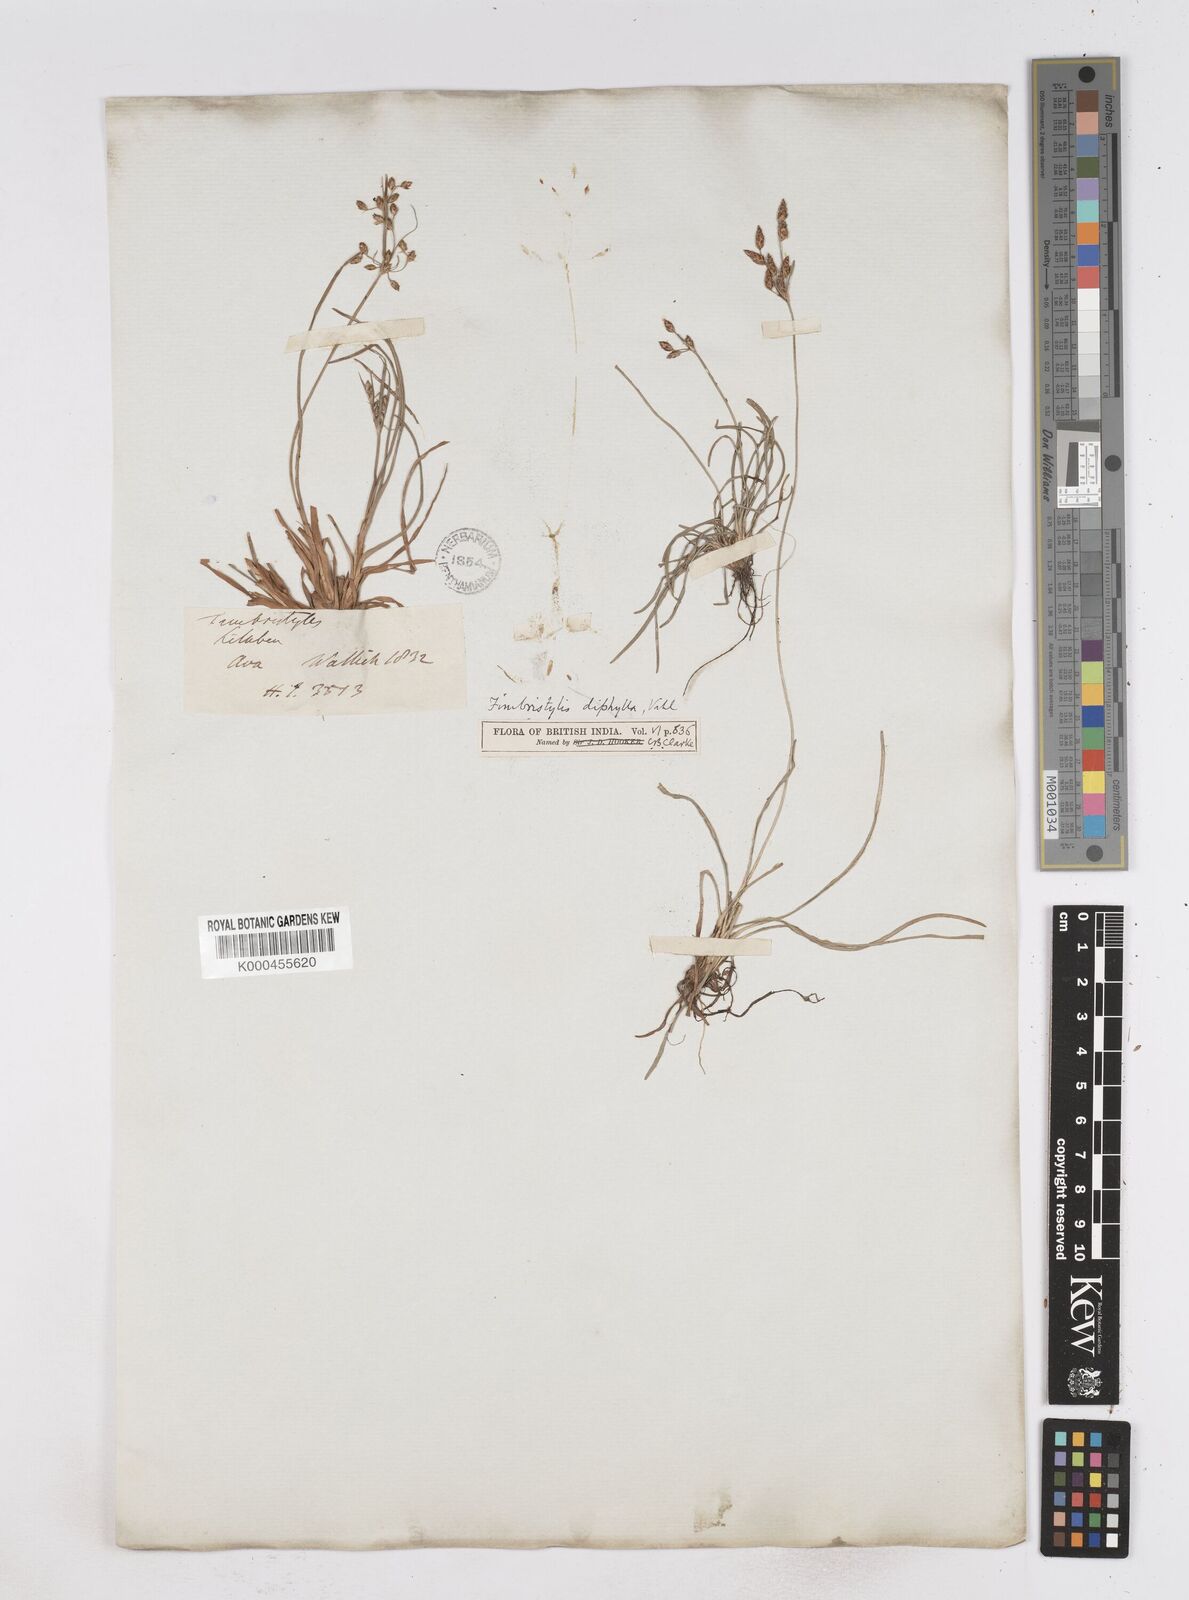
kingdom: Plantae
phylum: Tracheophyta
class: Liliopsida
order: Poales
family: Cyperaceae
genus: Fimbristylis
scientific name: Fimbristylis dichotoma
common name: Forked fimbry
